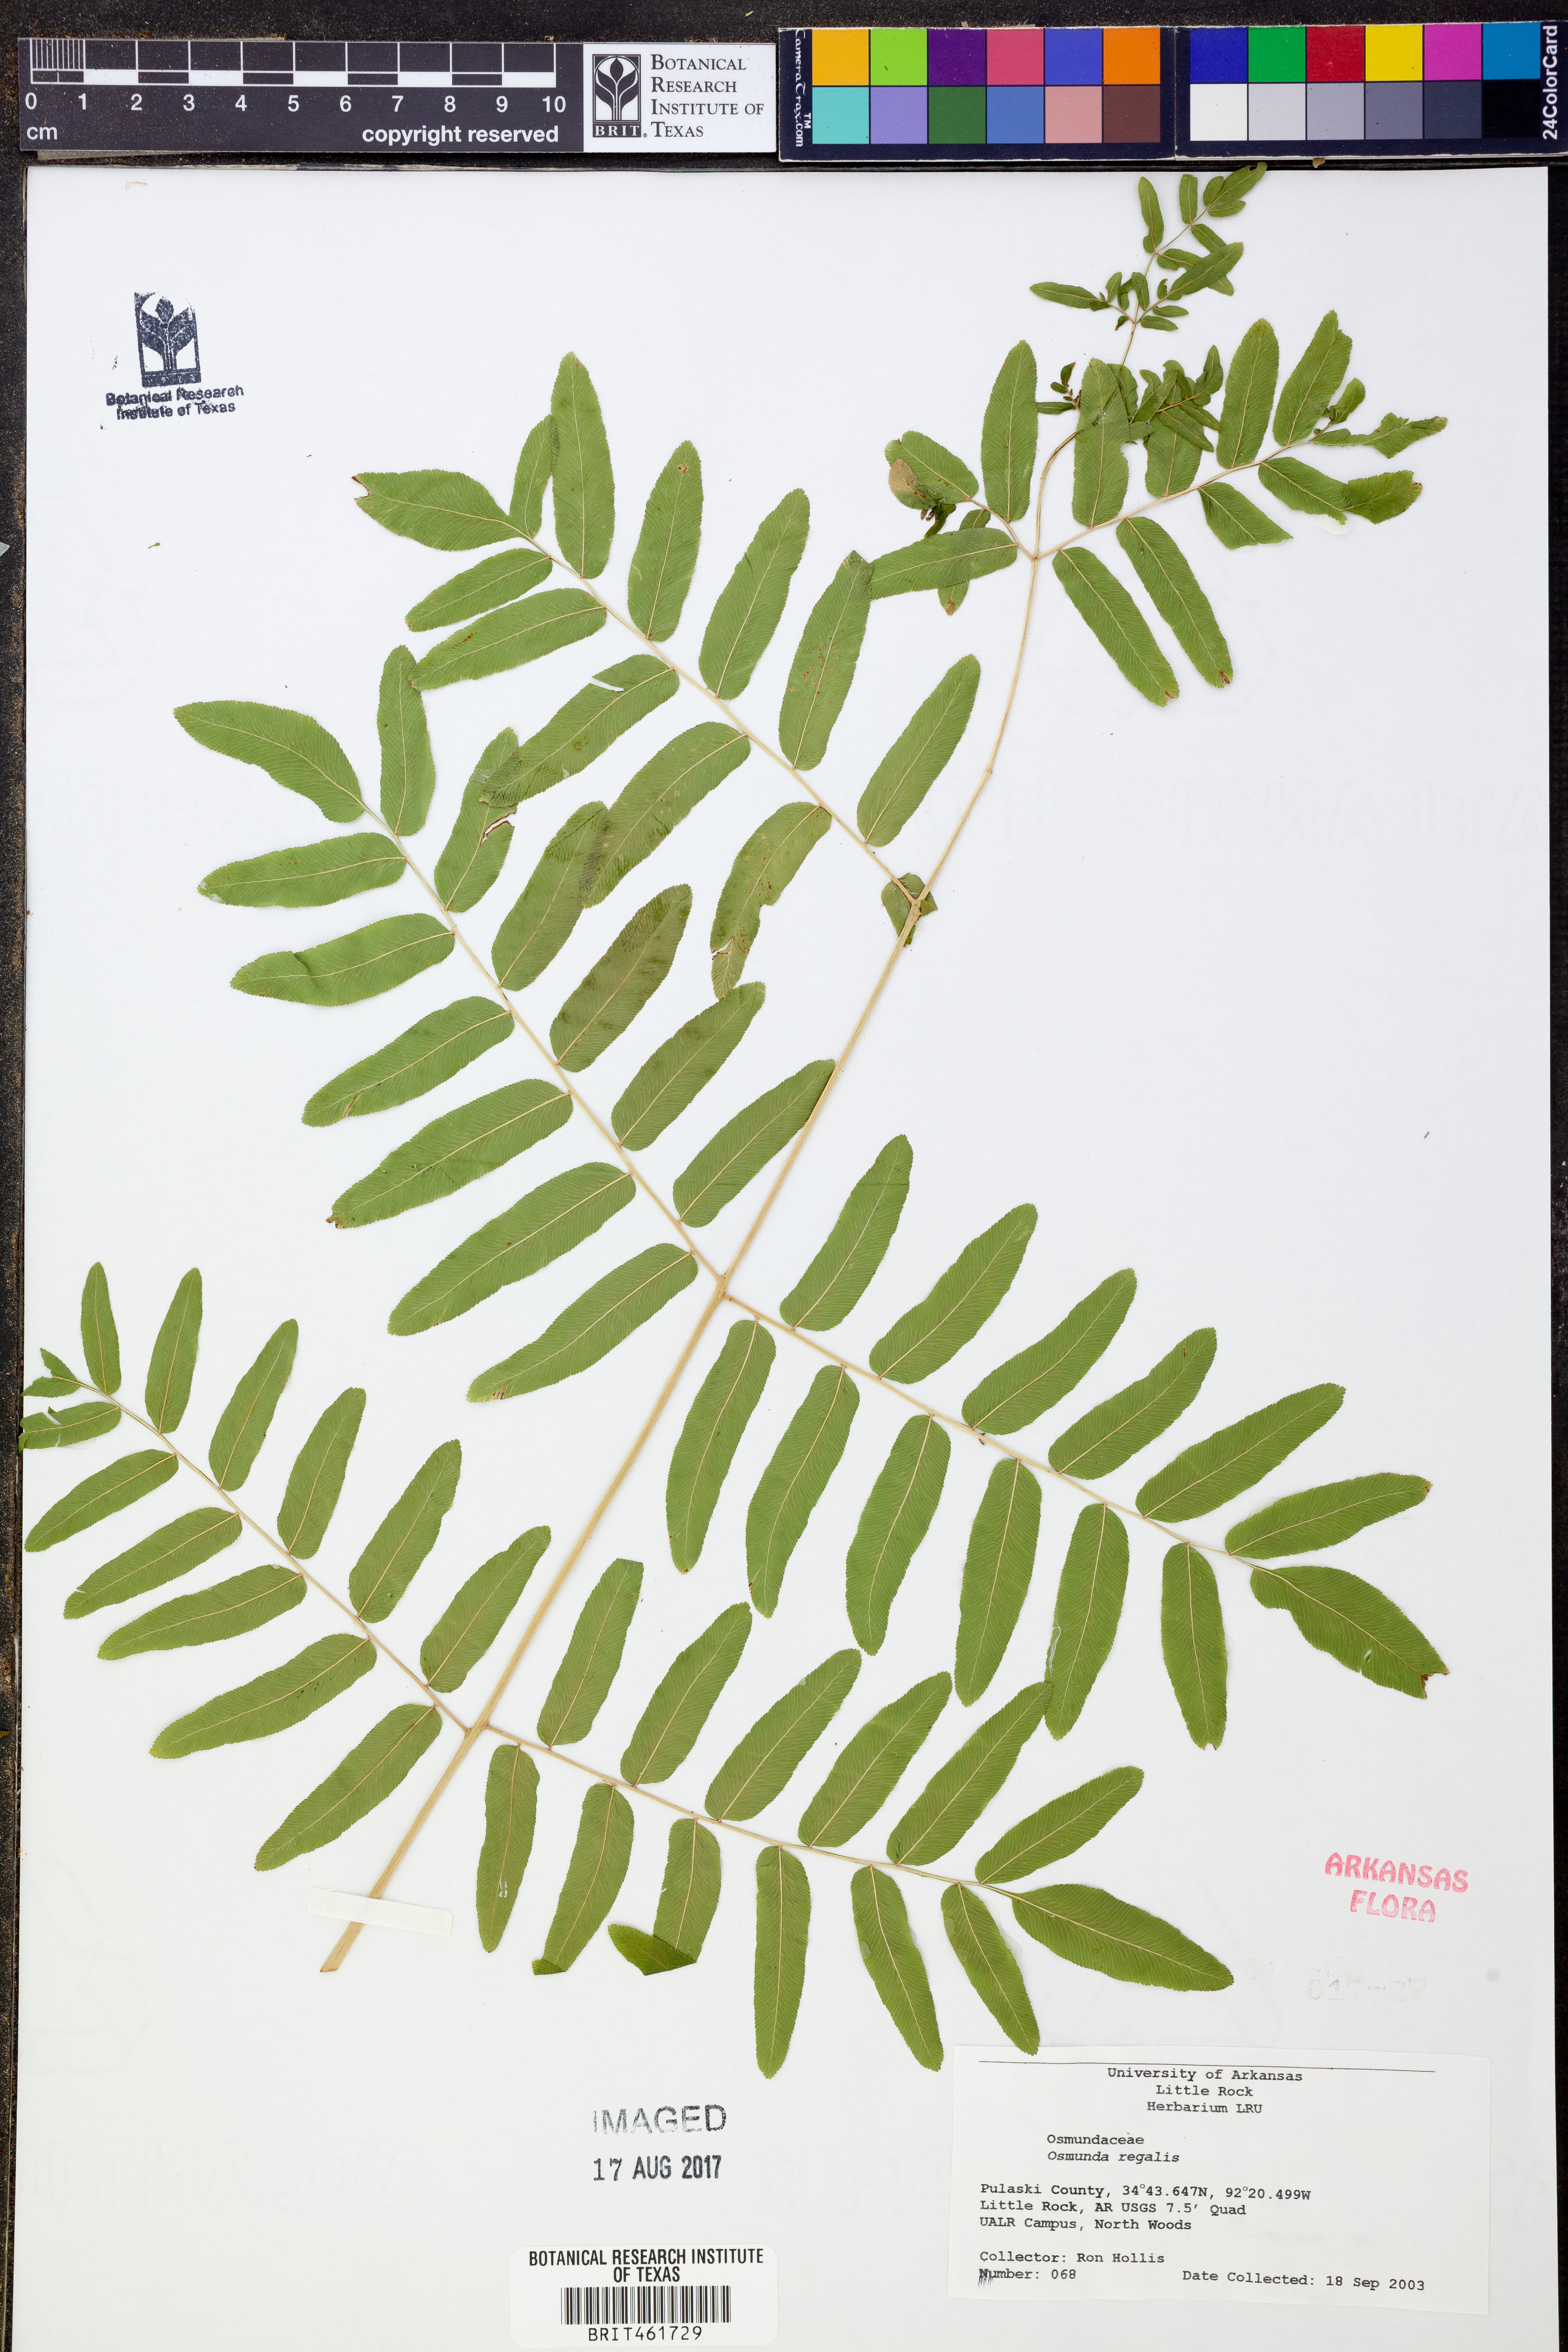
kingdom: Plantae
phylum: Tracheophyta
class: Polypodiopsida
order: Osmundales
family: Osmundaceae
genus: Osmunda
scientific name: Osmunda regalis
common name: Royal fern
